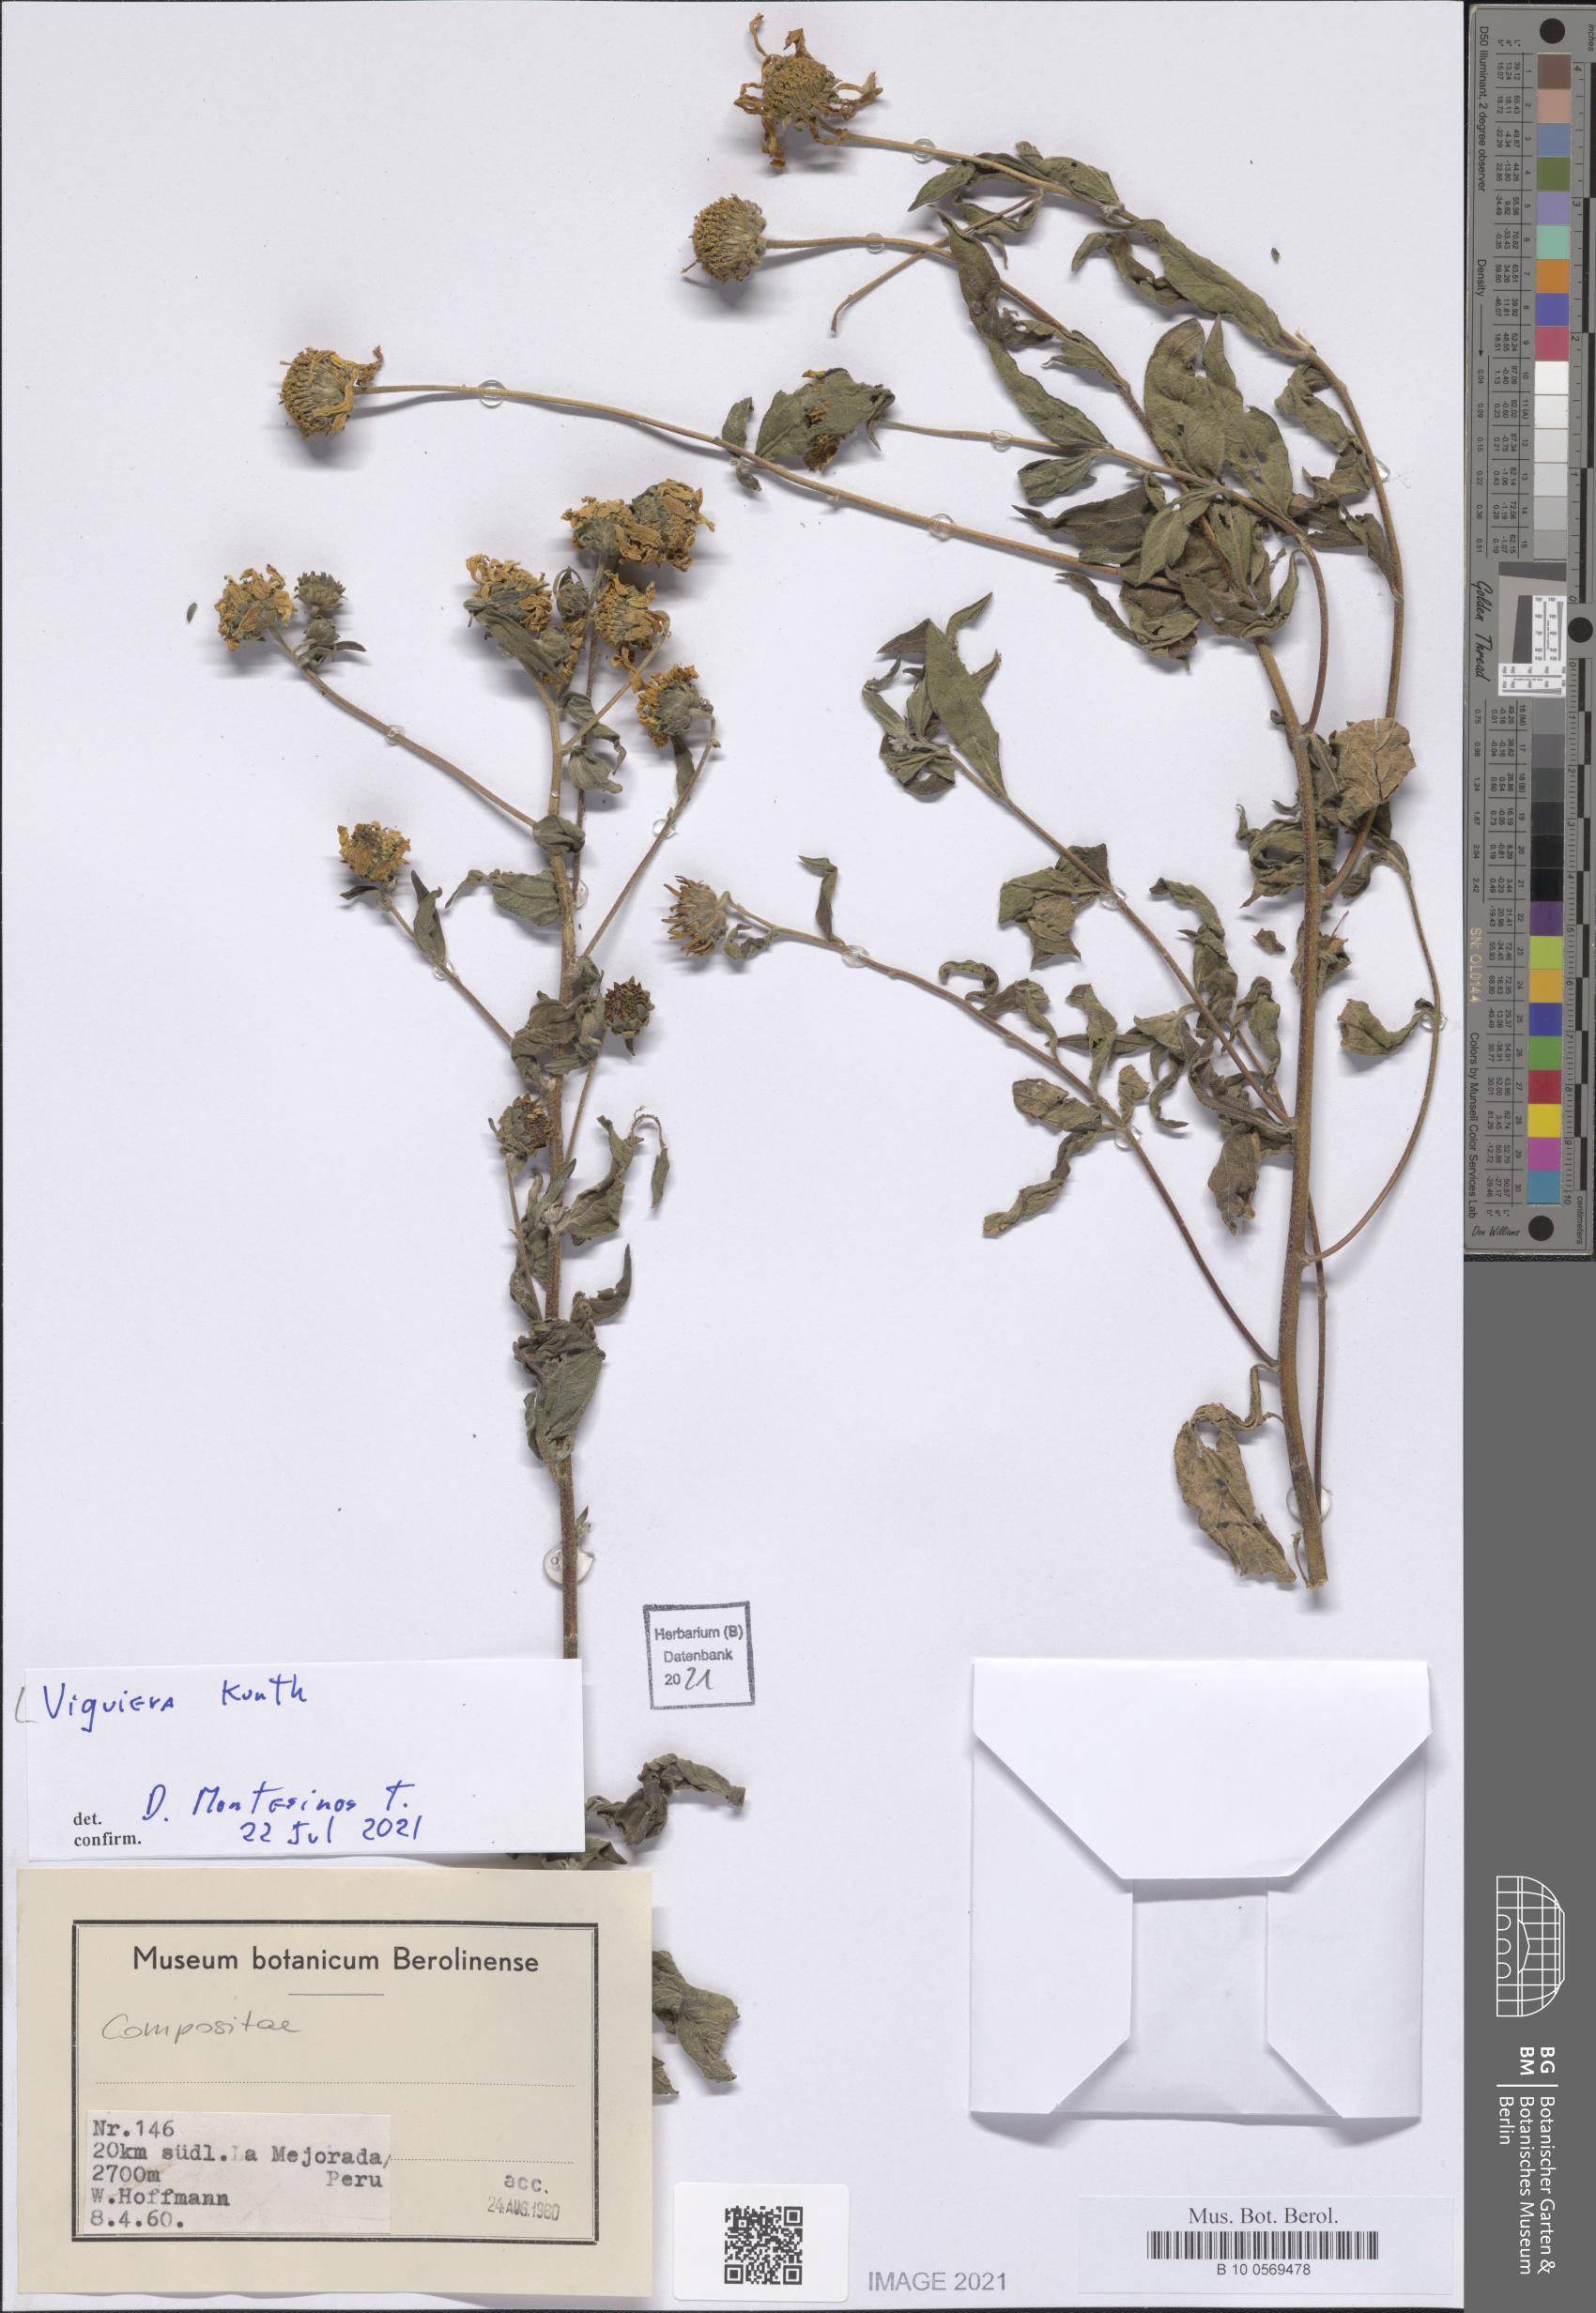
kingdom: Plantae
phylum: Tracheophyta
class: Magnoliopsida
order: Asterales
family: Asteraceae
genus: Viguiera
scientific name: Viguiera
